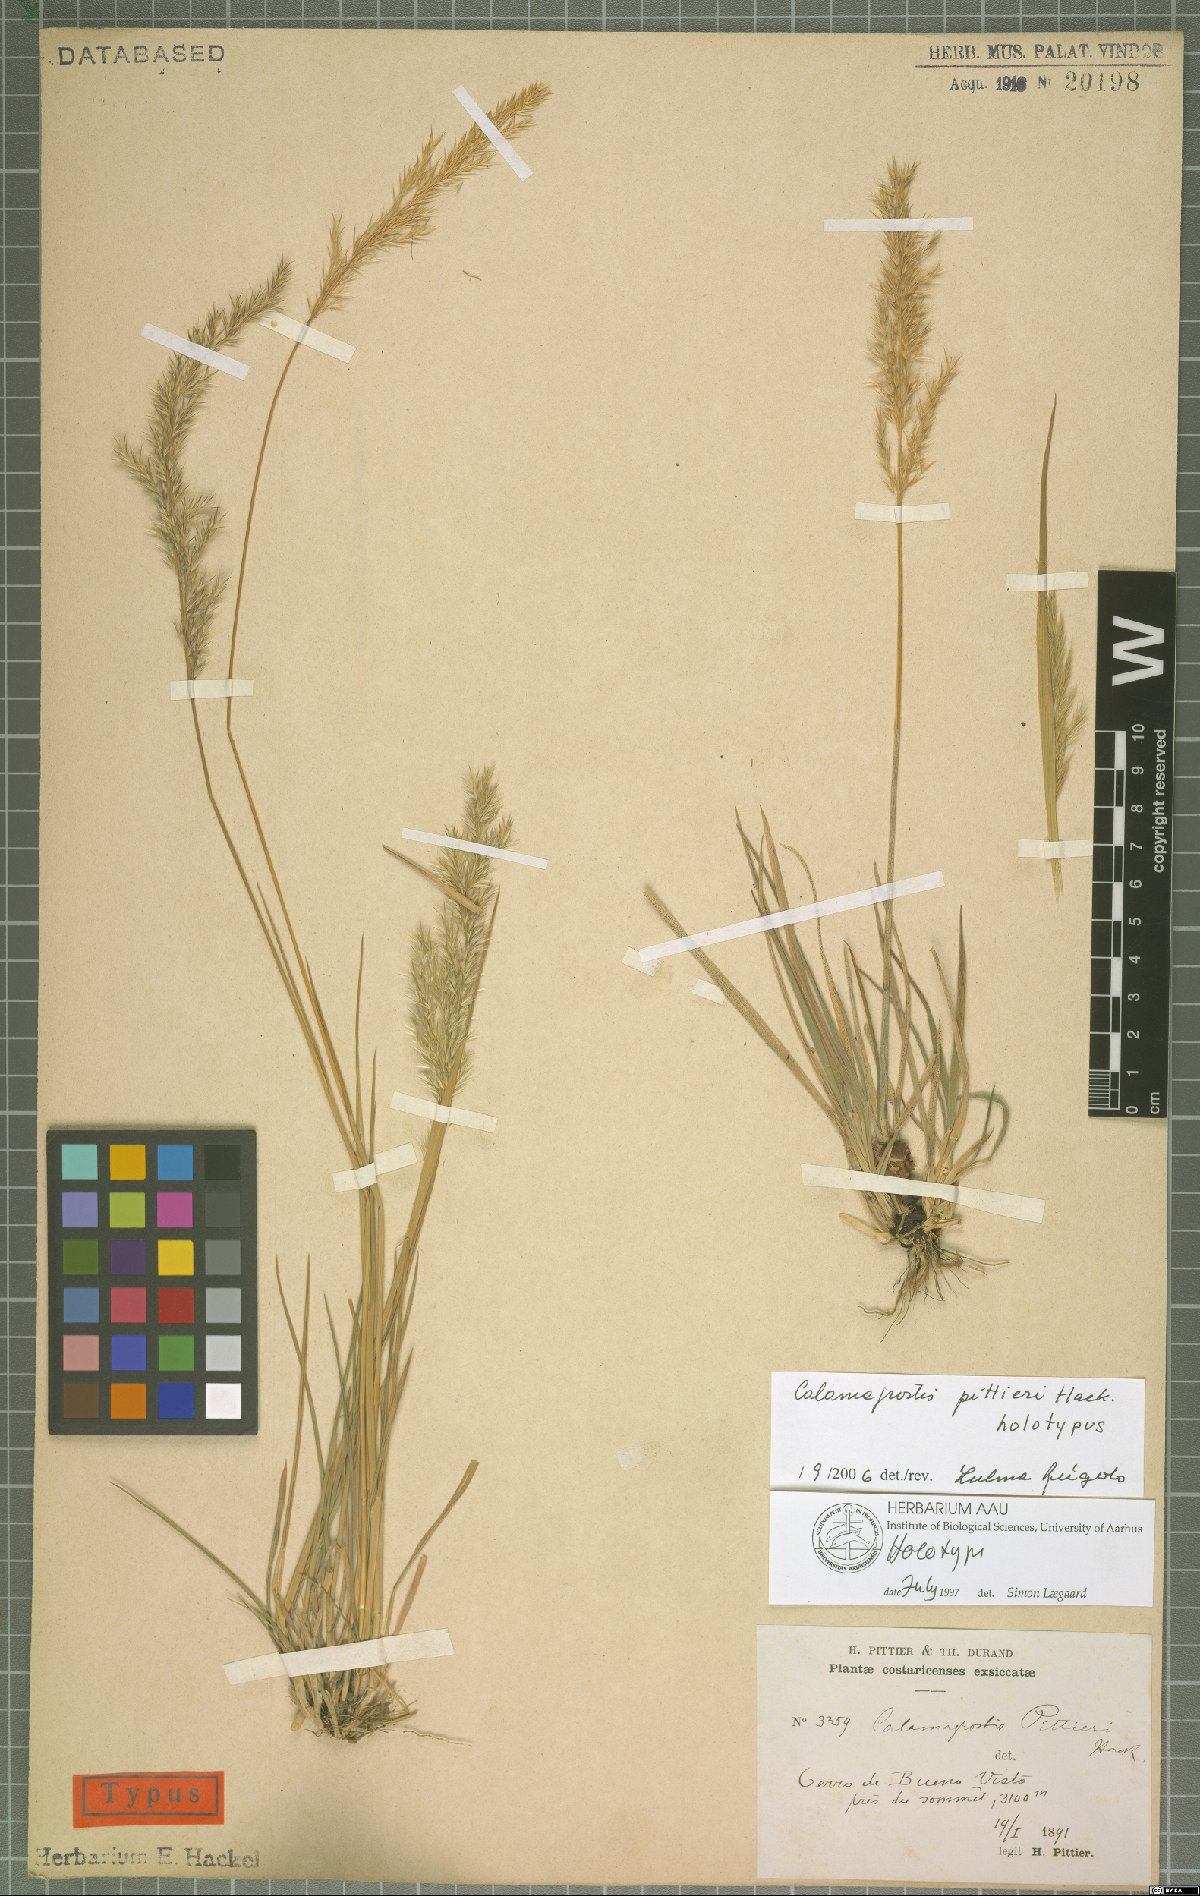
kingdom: Plantae
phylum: Tracheophyta
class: Liliopsida
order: Poales
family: Poaceae
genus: Peyritschia
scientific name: Peyritschia planifolia
